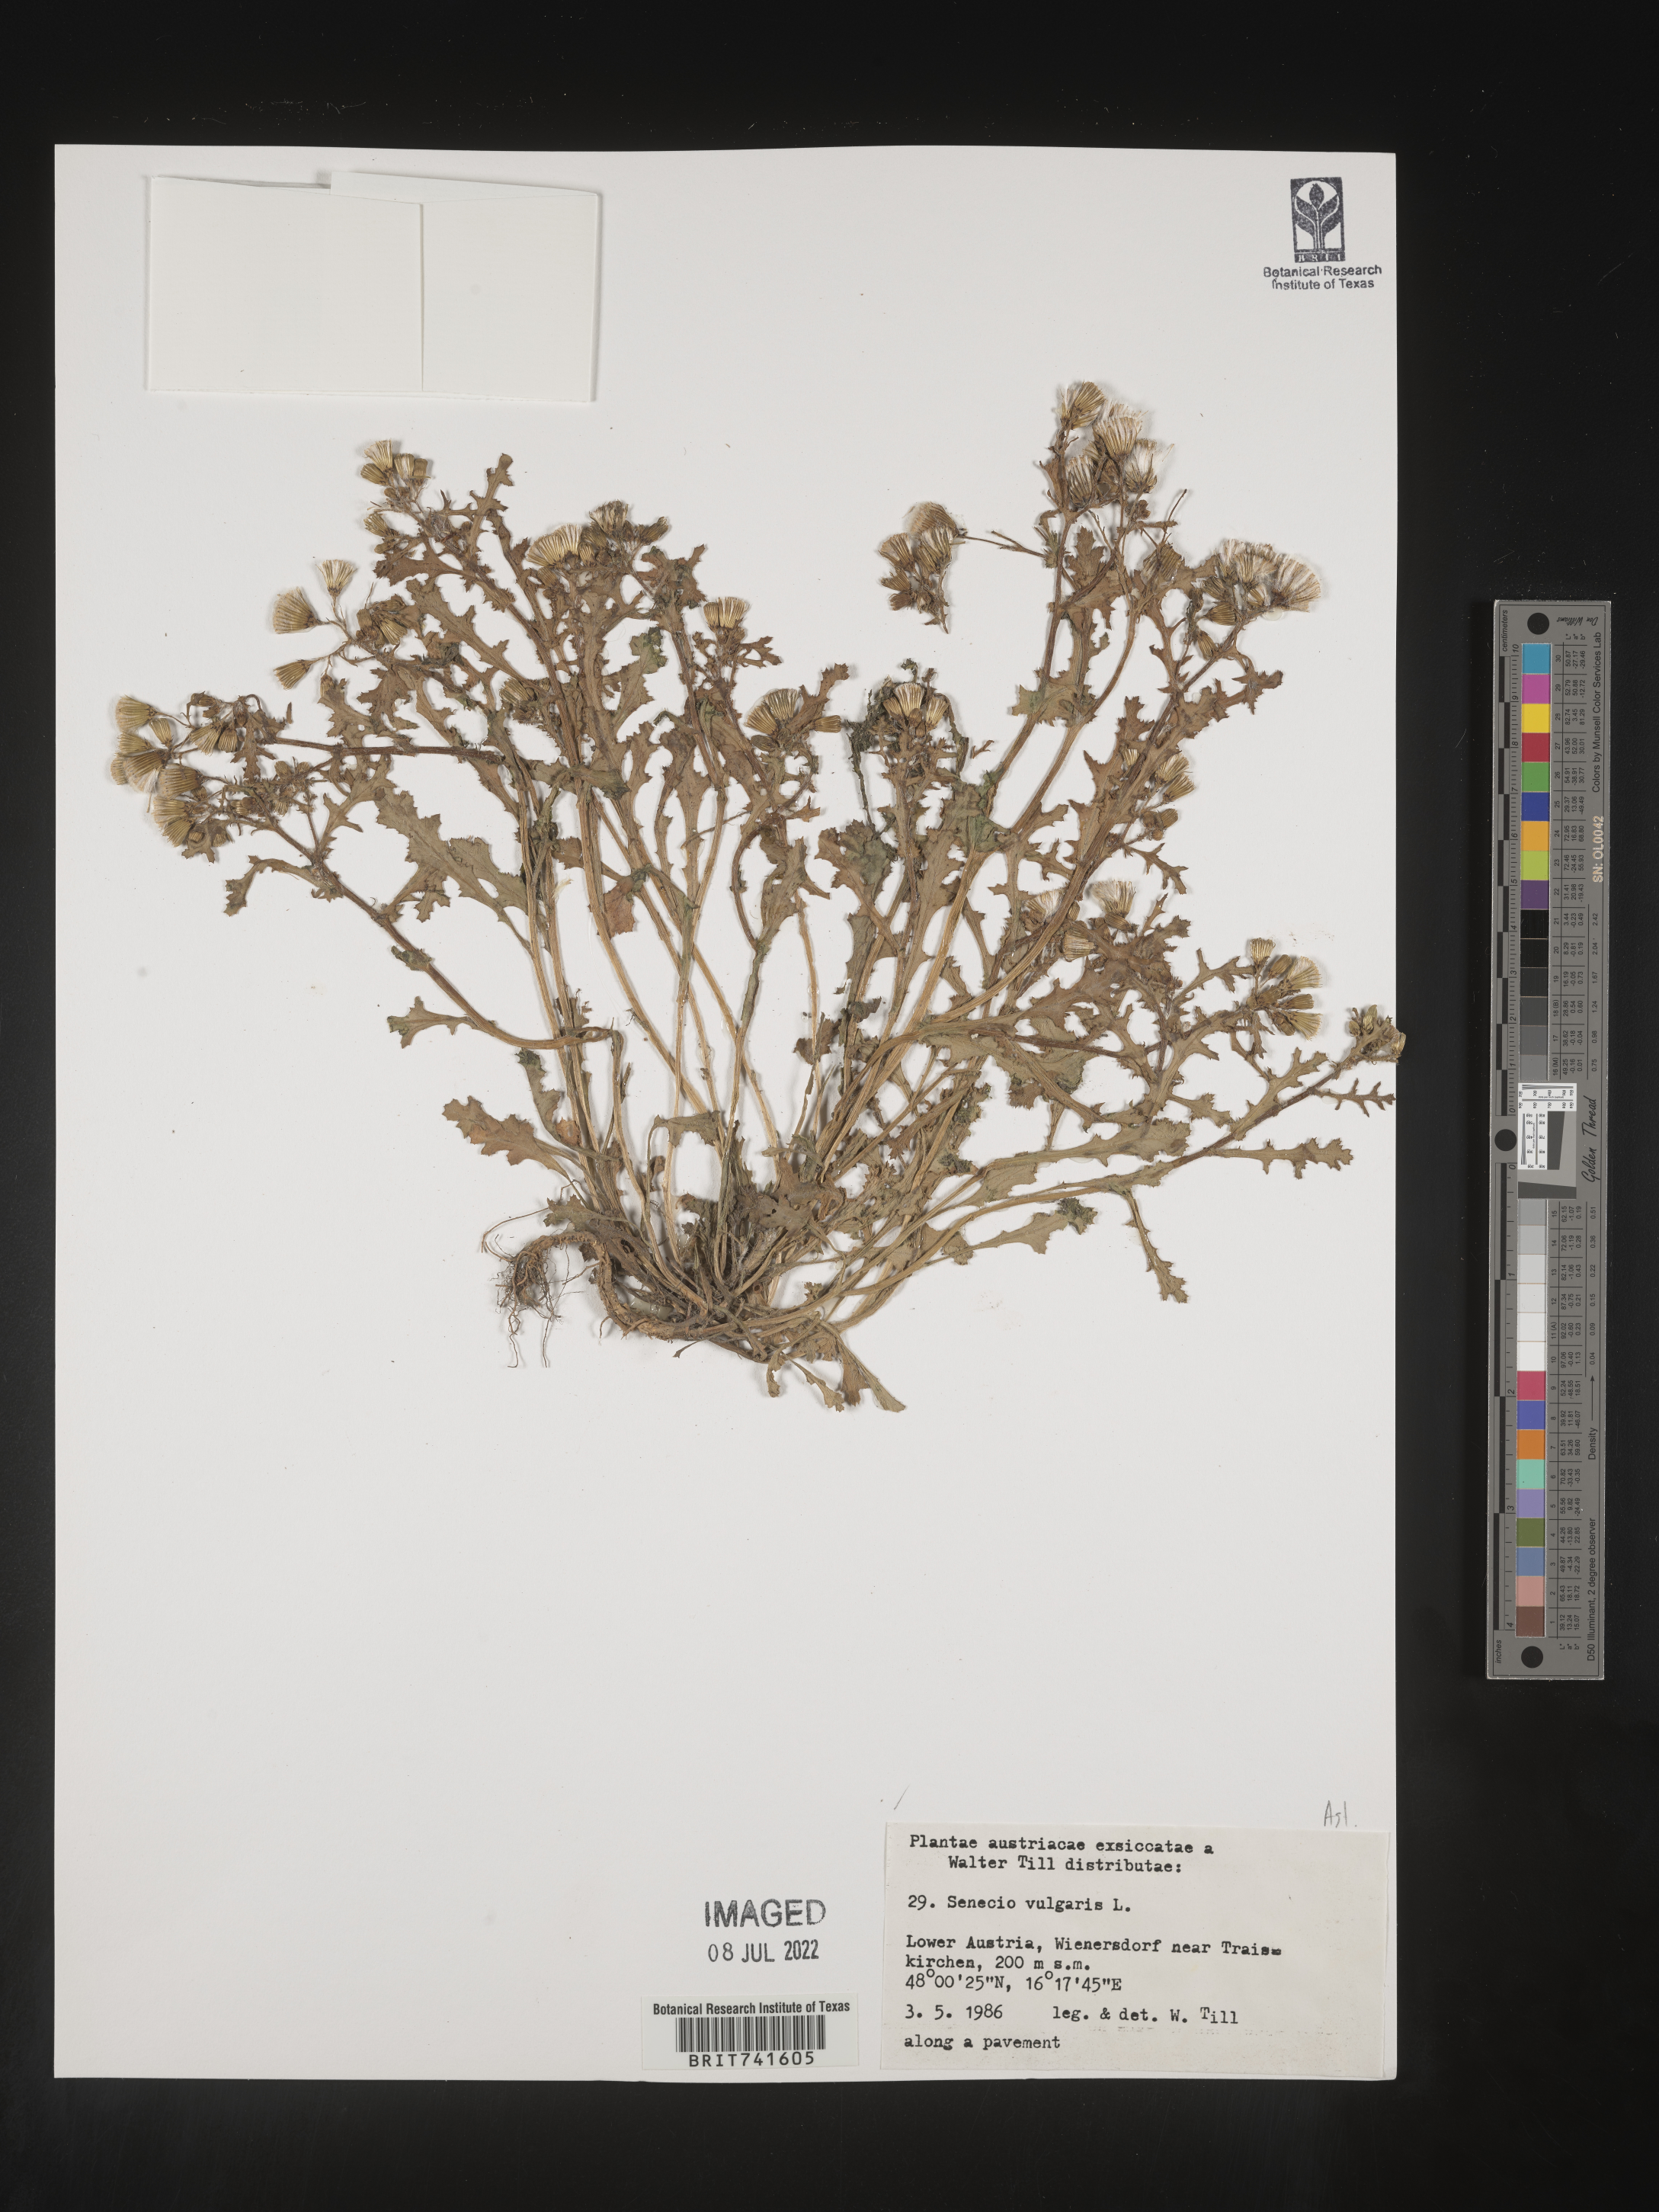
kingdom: Plantae
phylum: Tracheophyta
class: Magnoliopsida
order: Asterales
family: Asteraceae
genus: Senecio
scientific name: Senecio
